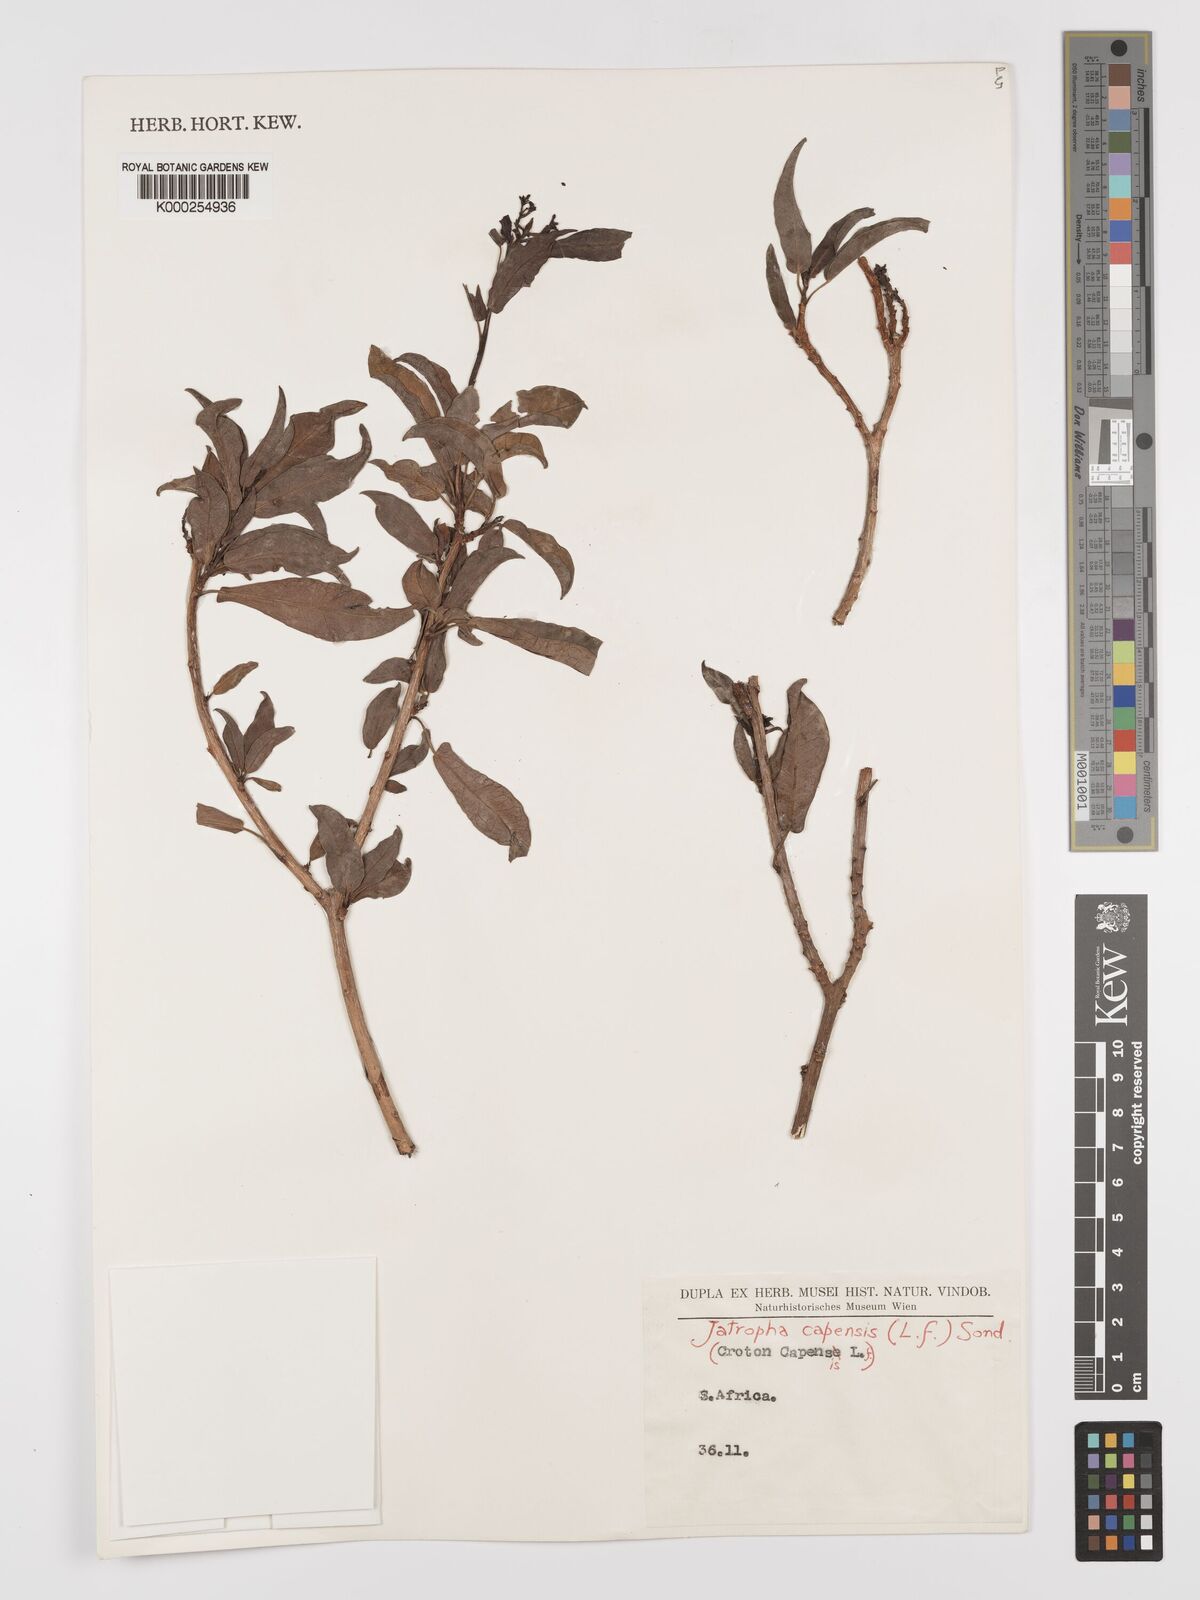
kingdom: Plantae
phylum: Tracheophyta
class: Magnoliopsida
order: Malpighiales
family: Euphorbiaceae
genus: Jatropha
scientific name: Jatropha capensis
